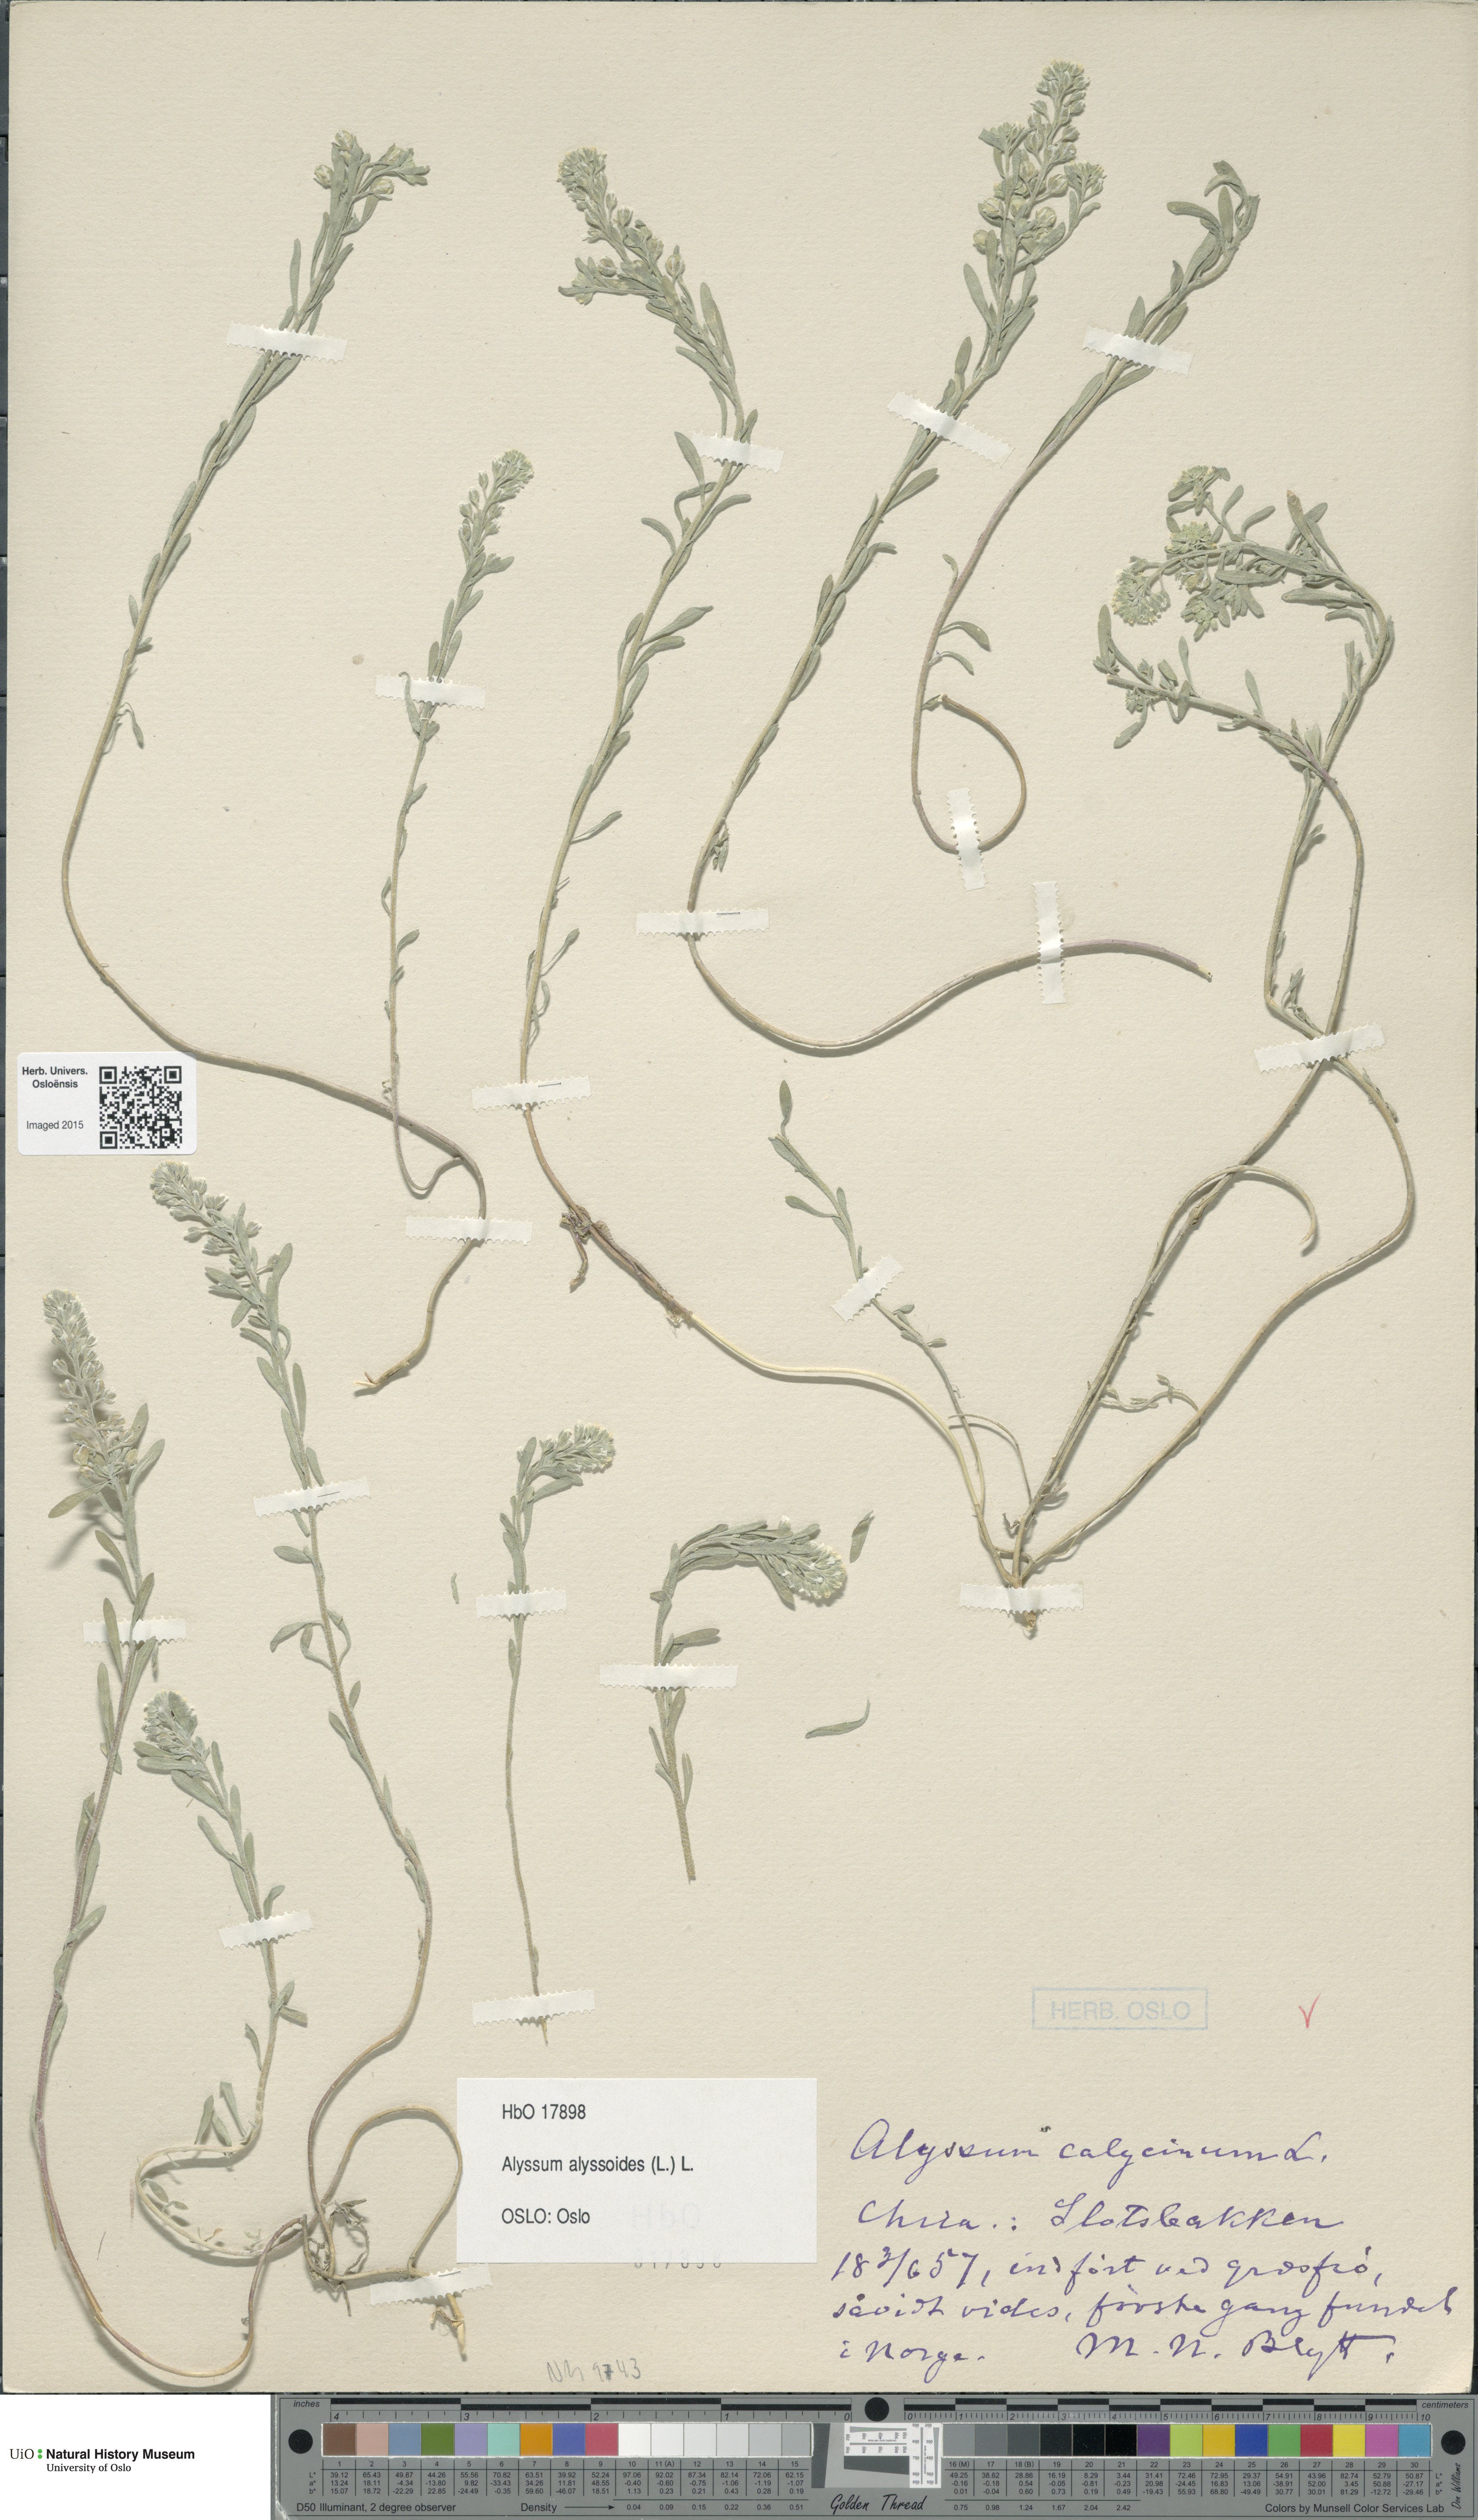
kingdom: Plantae
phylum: Tracheophyta
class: Magnoliopsida
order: Brassicales
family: Brassicaceae
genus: Alyssum
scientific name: Alyssum alyssoides
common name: Small alison
